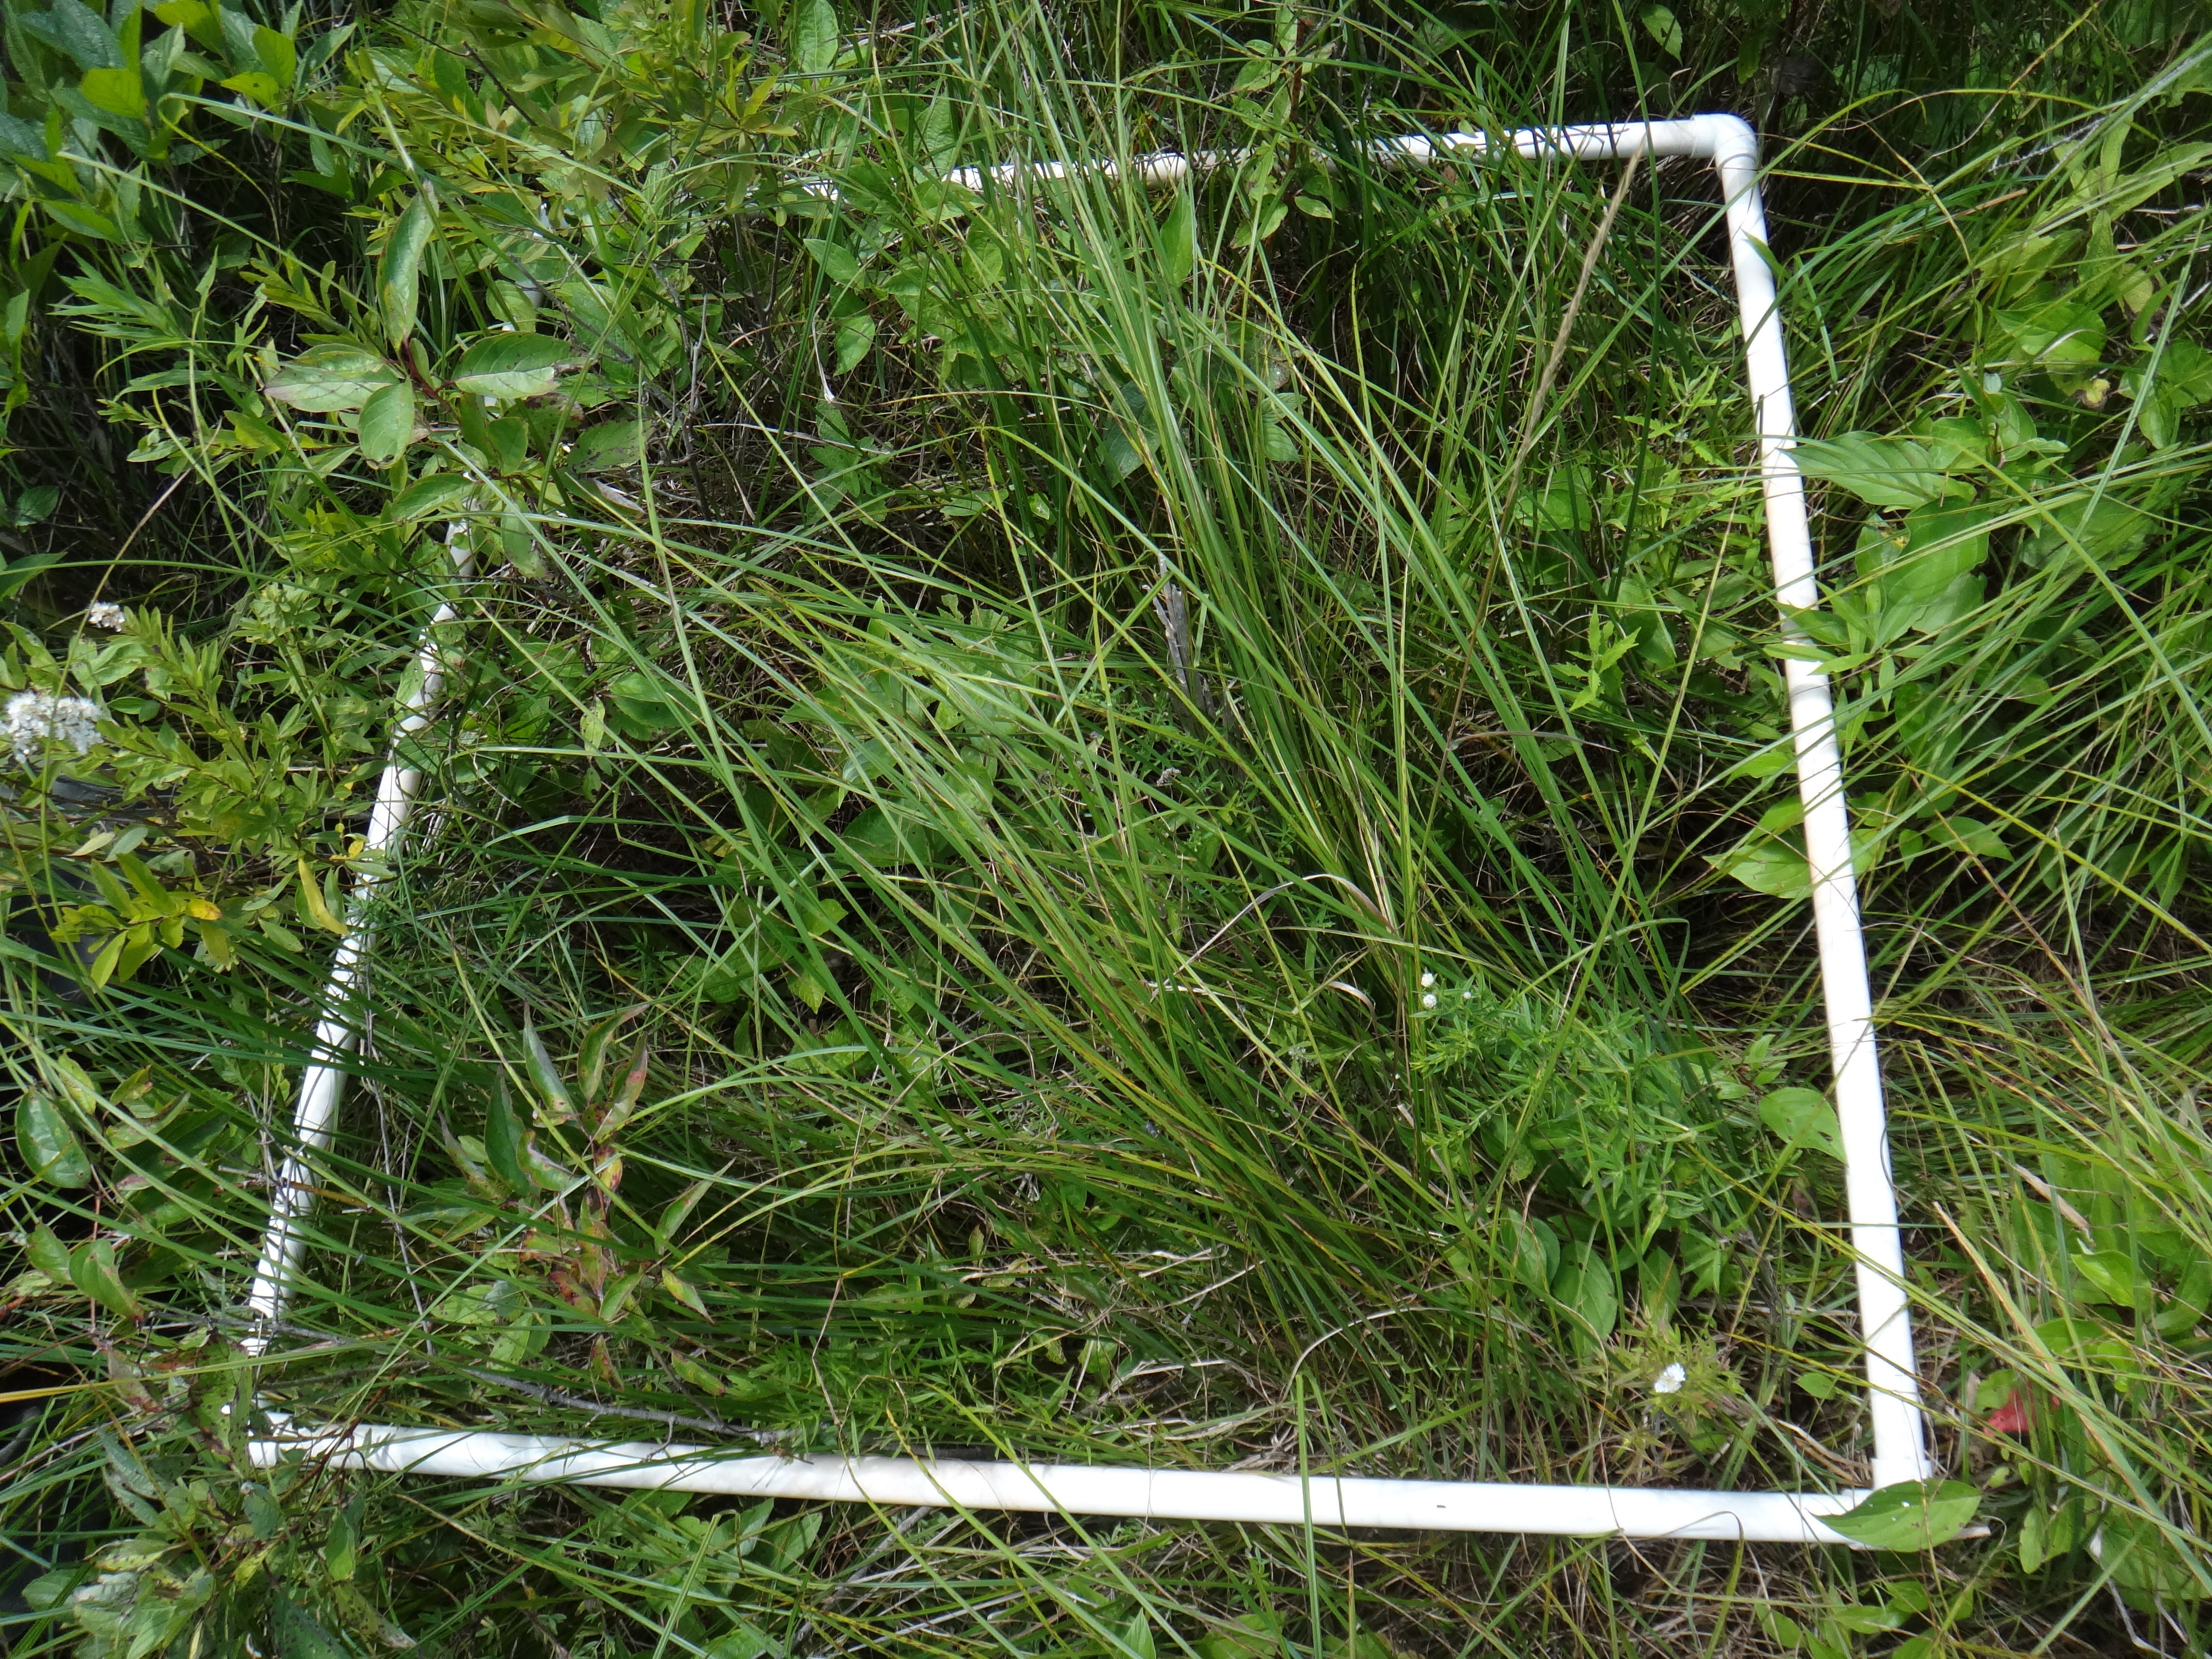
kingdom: Plantae
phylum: Tracheophyta
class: Magnoliopsida
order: Cornales
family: Cornaceae
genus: Cornus
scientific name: Cornus foemina
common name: Swamp dogwood
